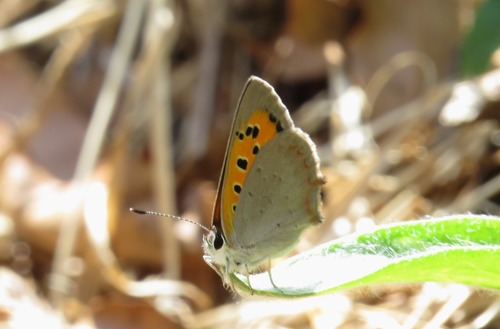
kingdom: Animalia
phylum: Arthropoda
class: Insecta
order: Lepidoptera
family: Lycaenidae
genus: Lycaena
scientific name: Lycaena phlaeas
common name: Small copper
